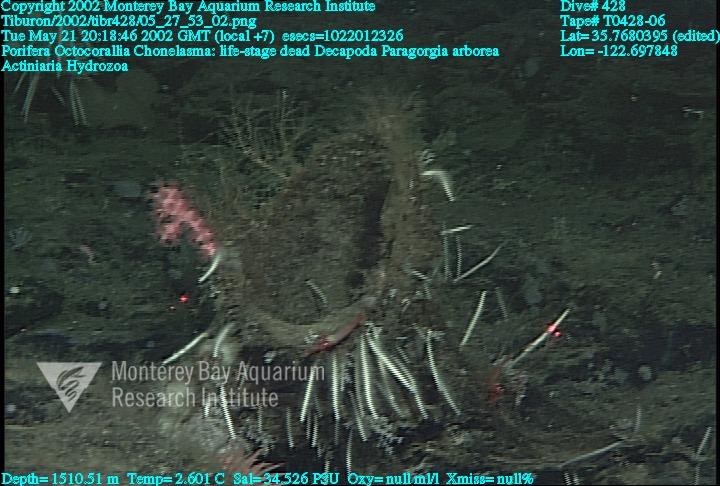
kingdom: Animalia
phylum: Porifera
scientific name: Porifera
